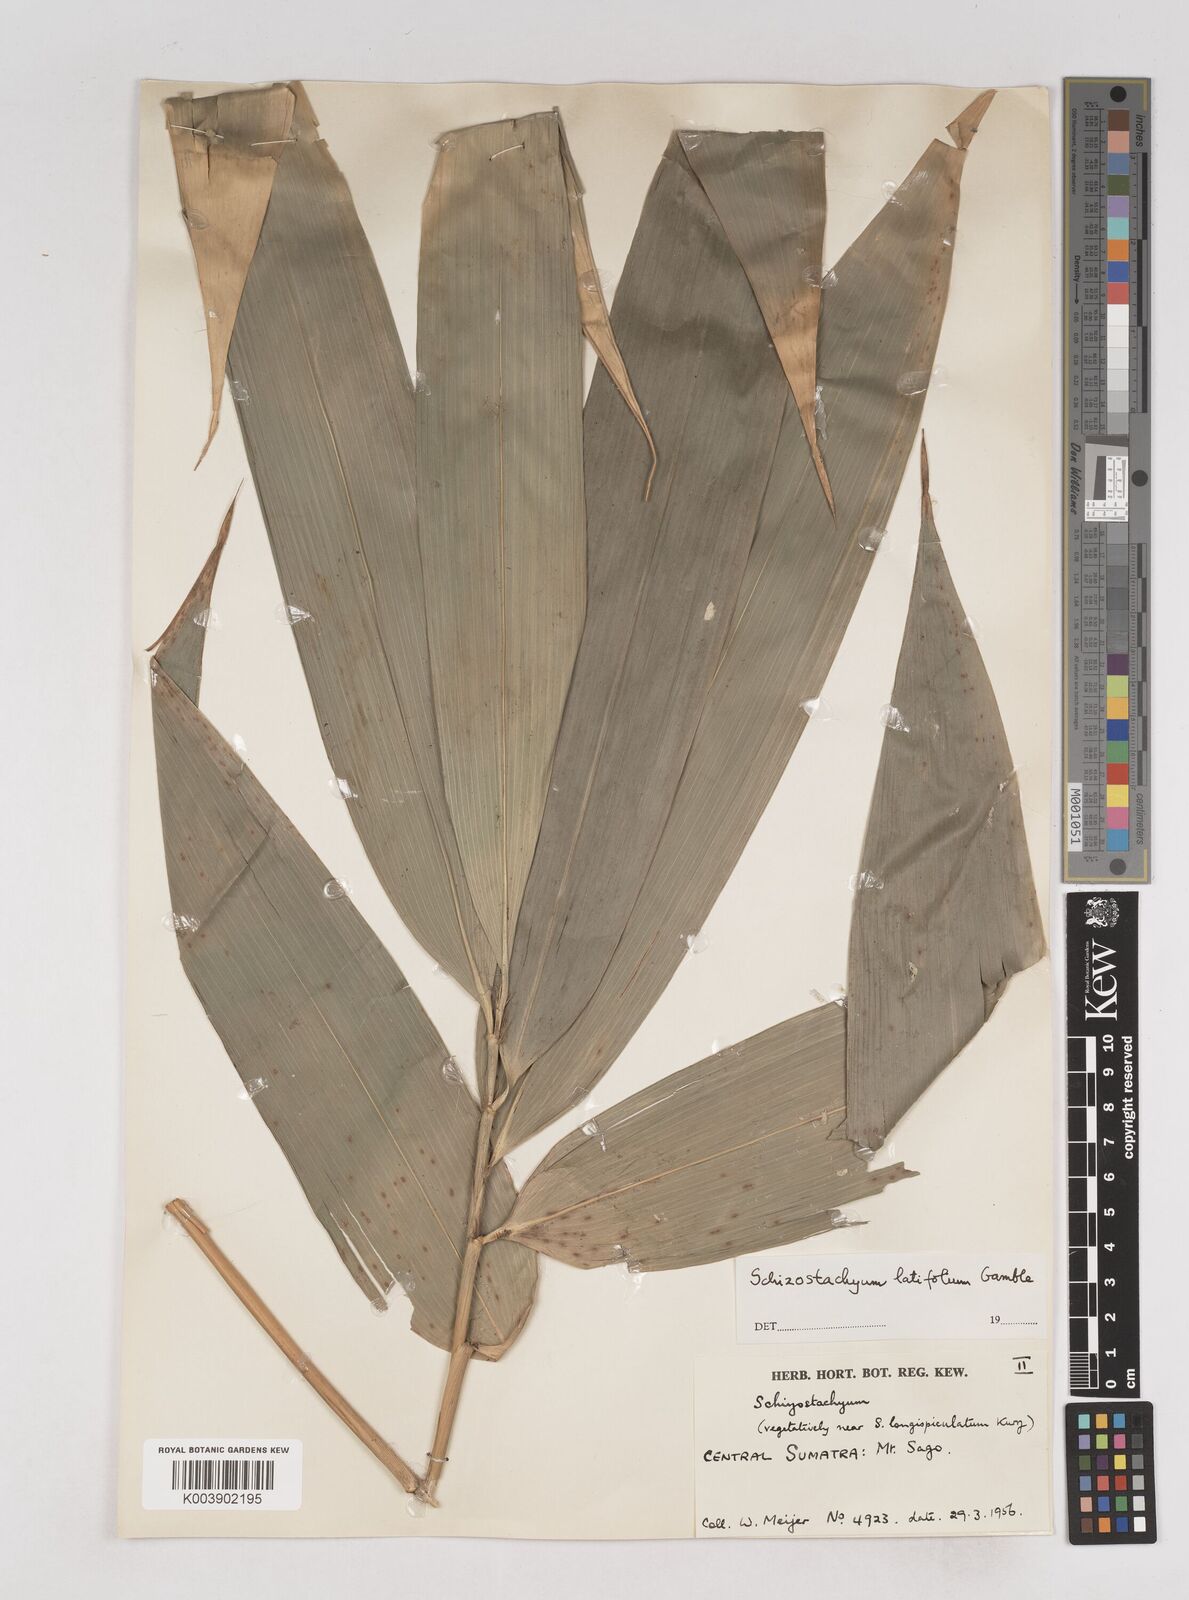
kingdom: Plantae
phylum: Tracheophyta
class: Liliopsida
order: Poales
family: Poaceae
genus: Schizostachyum
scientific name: Schizostachyum latifolium
